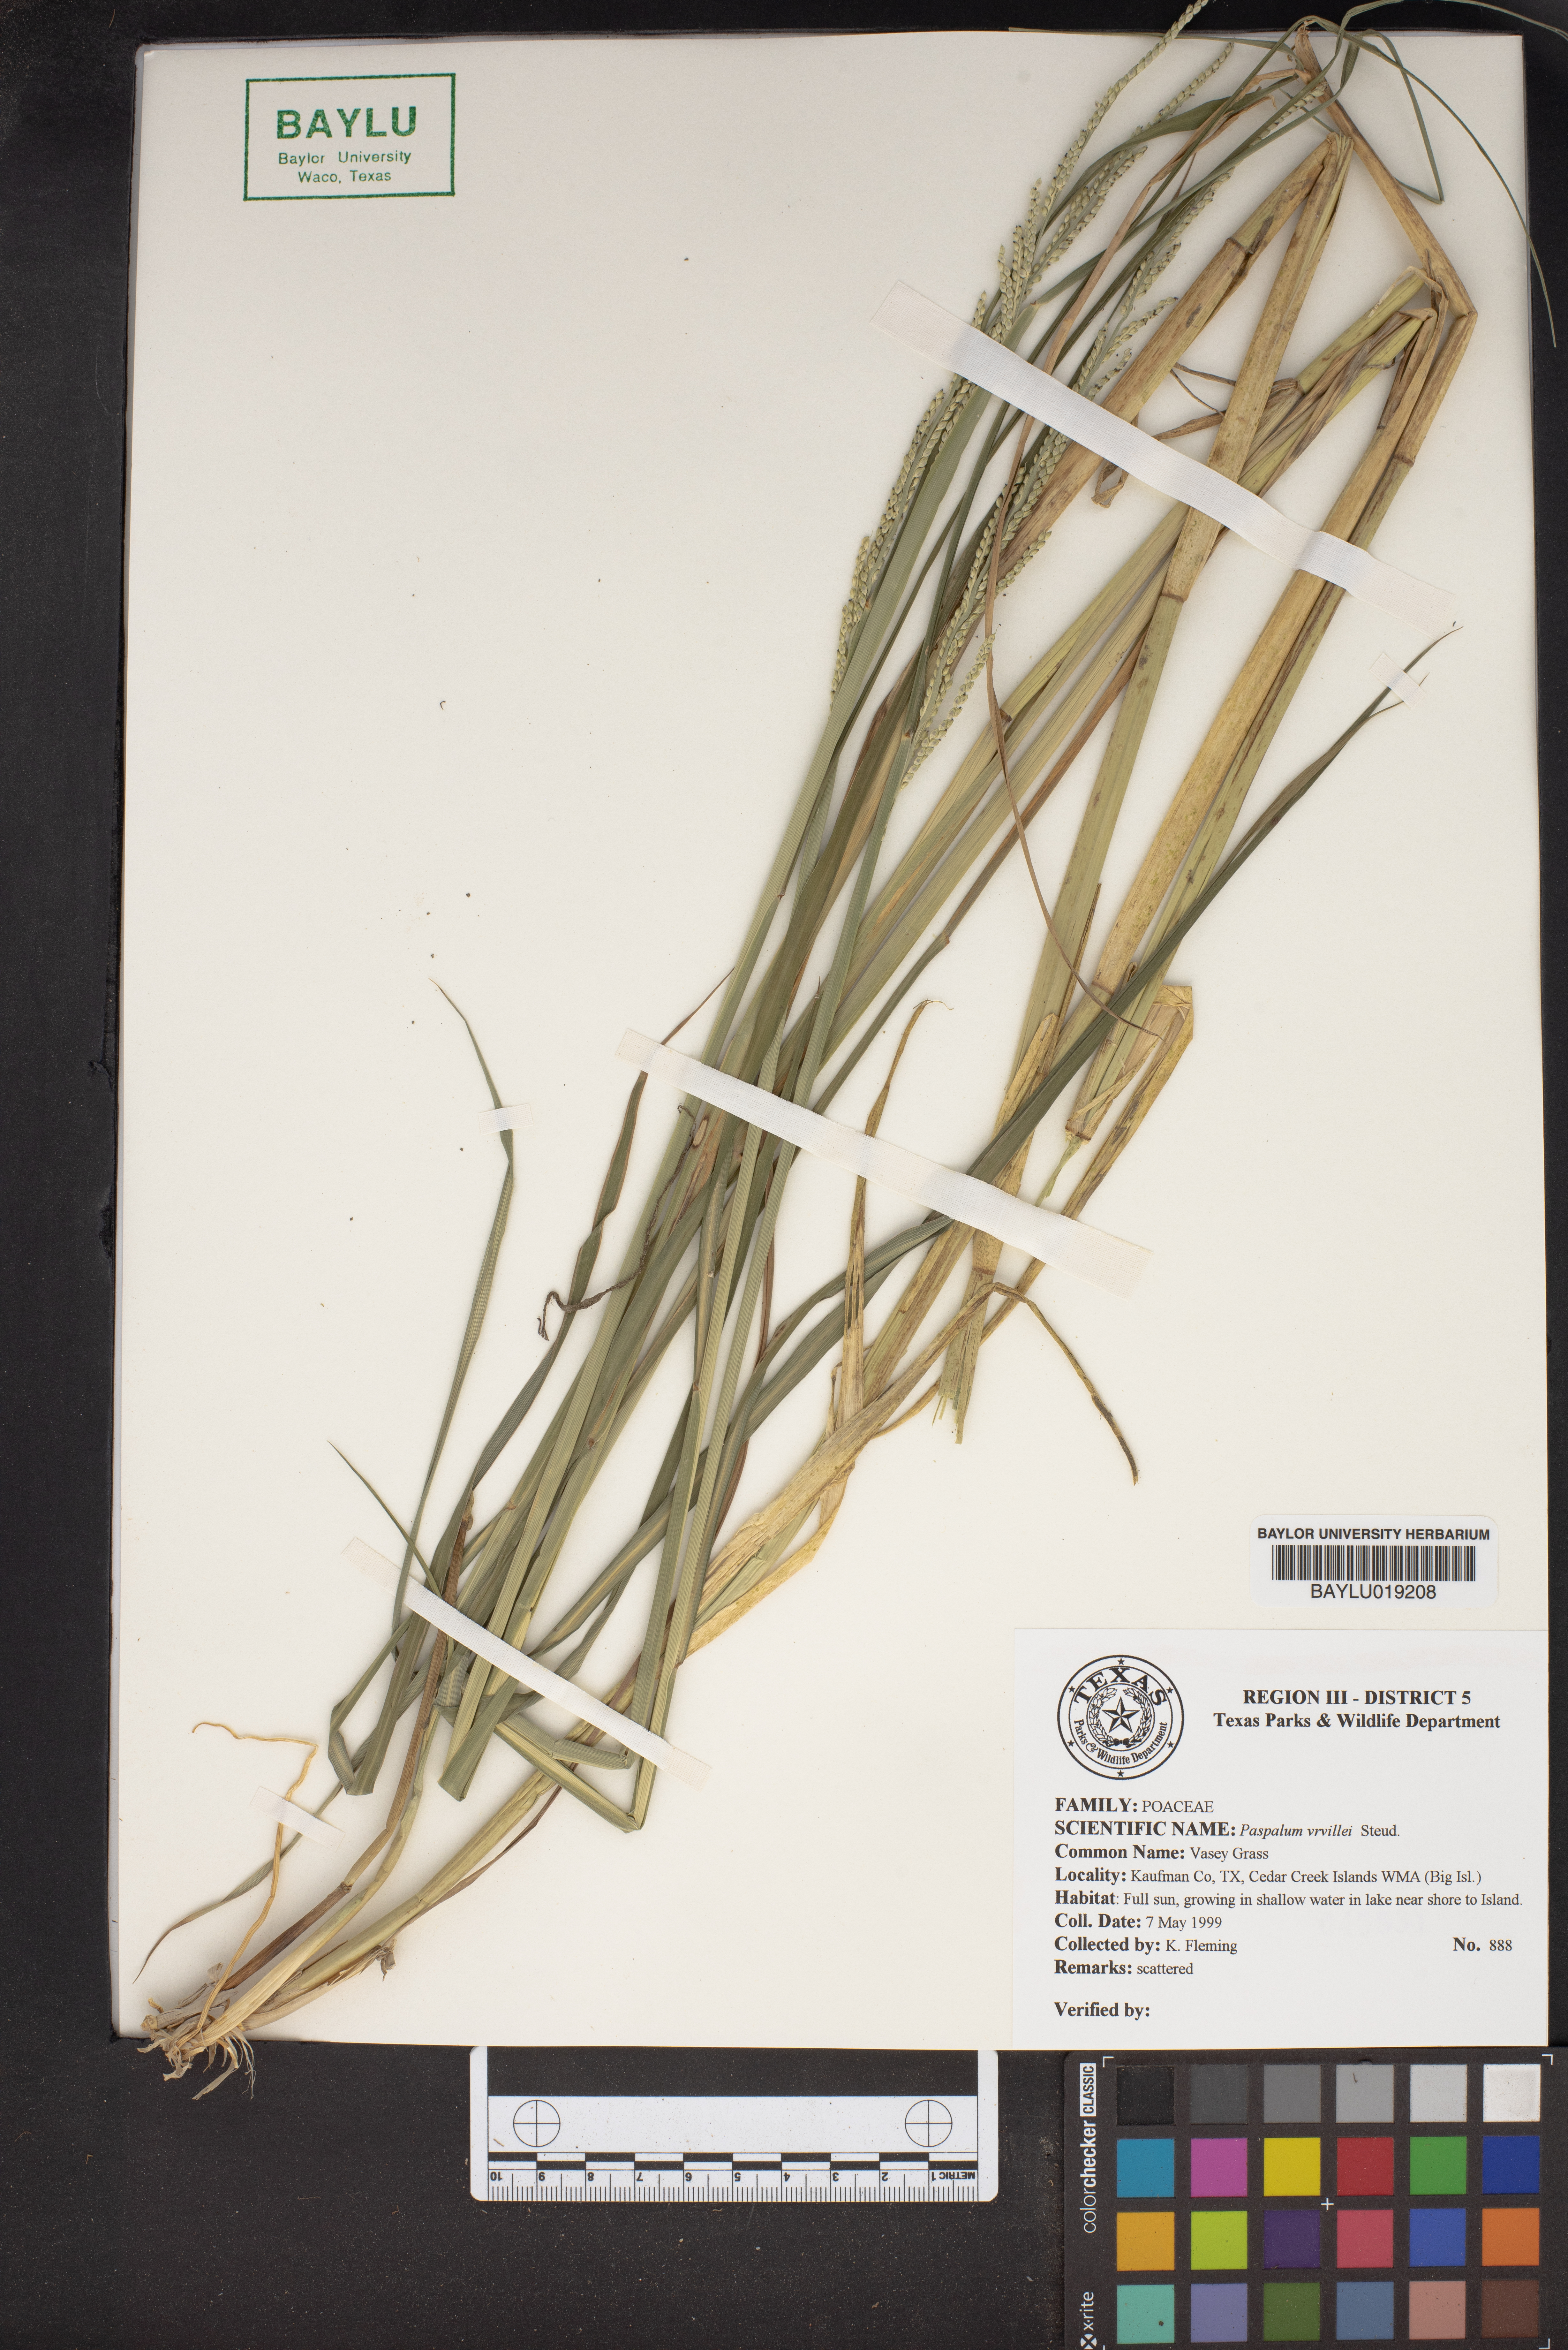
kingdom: Plantae
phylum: Tracheophyta
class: Liliopsida
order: Poales
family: Poaceae
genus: Paspalum
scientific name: Paspalum virletii
